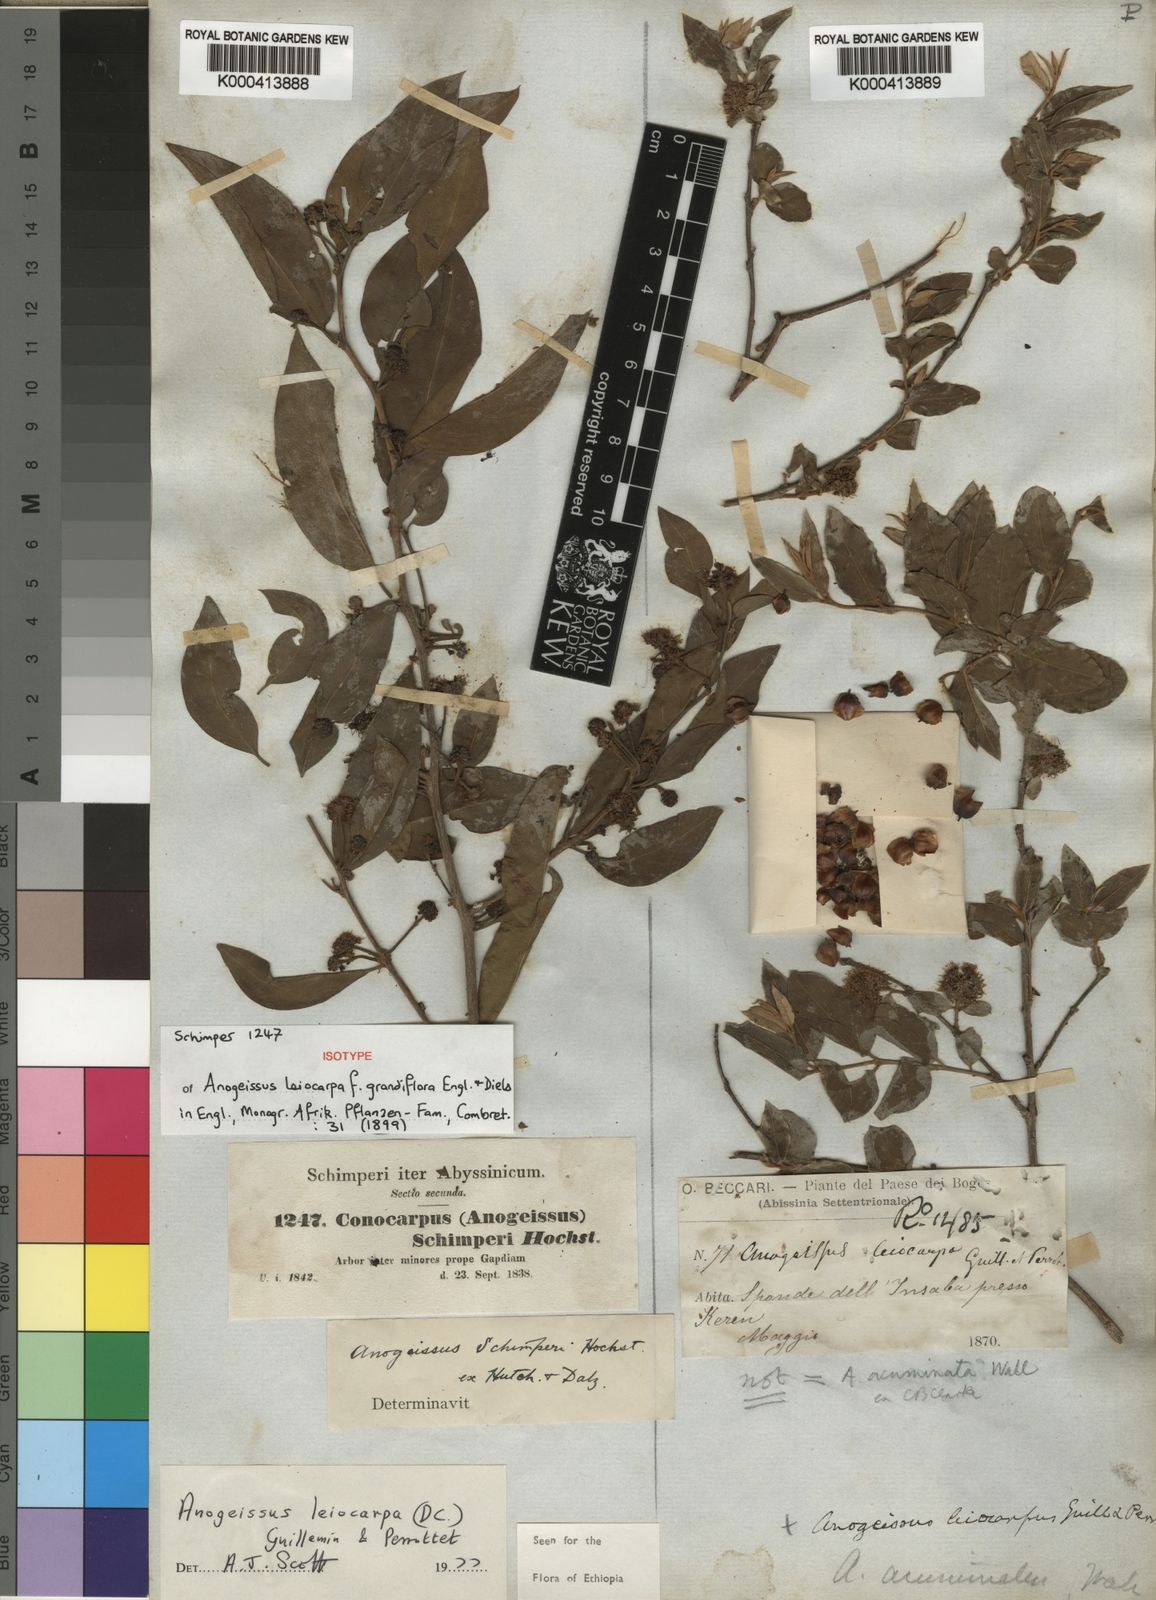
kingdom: Plantae
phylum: Tracheophyta
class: Magnoliopsida
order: Myrtales
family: Combretaceae
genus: Terminalia
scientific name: Terminalia leiocarpa
